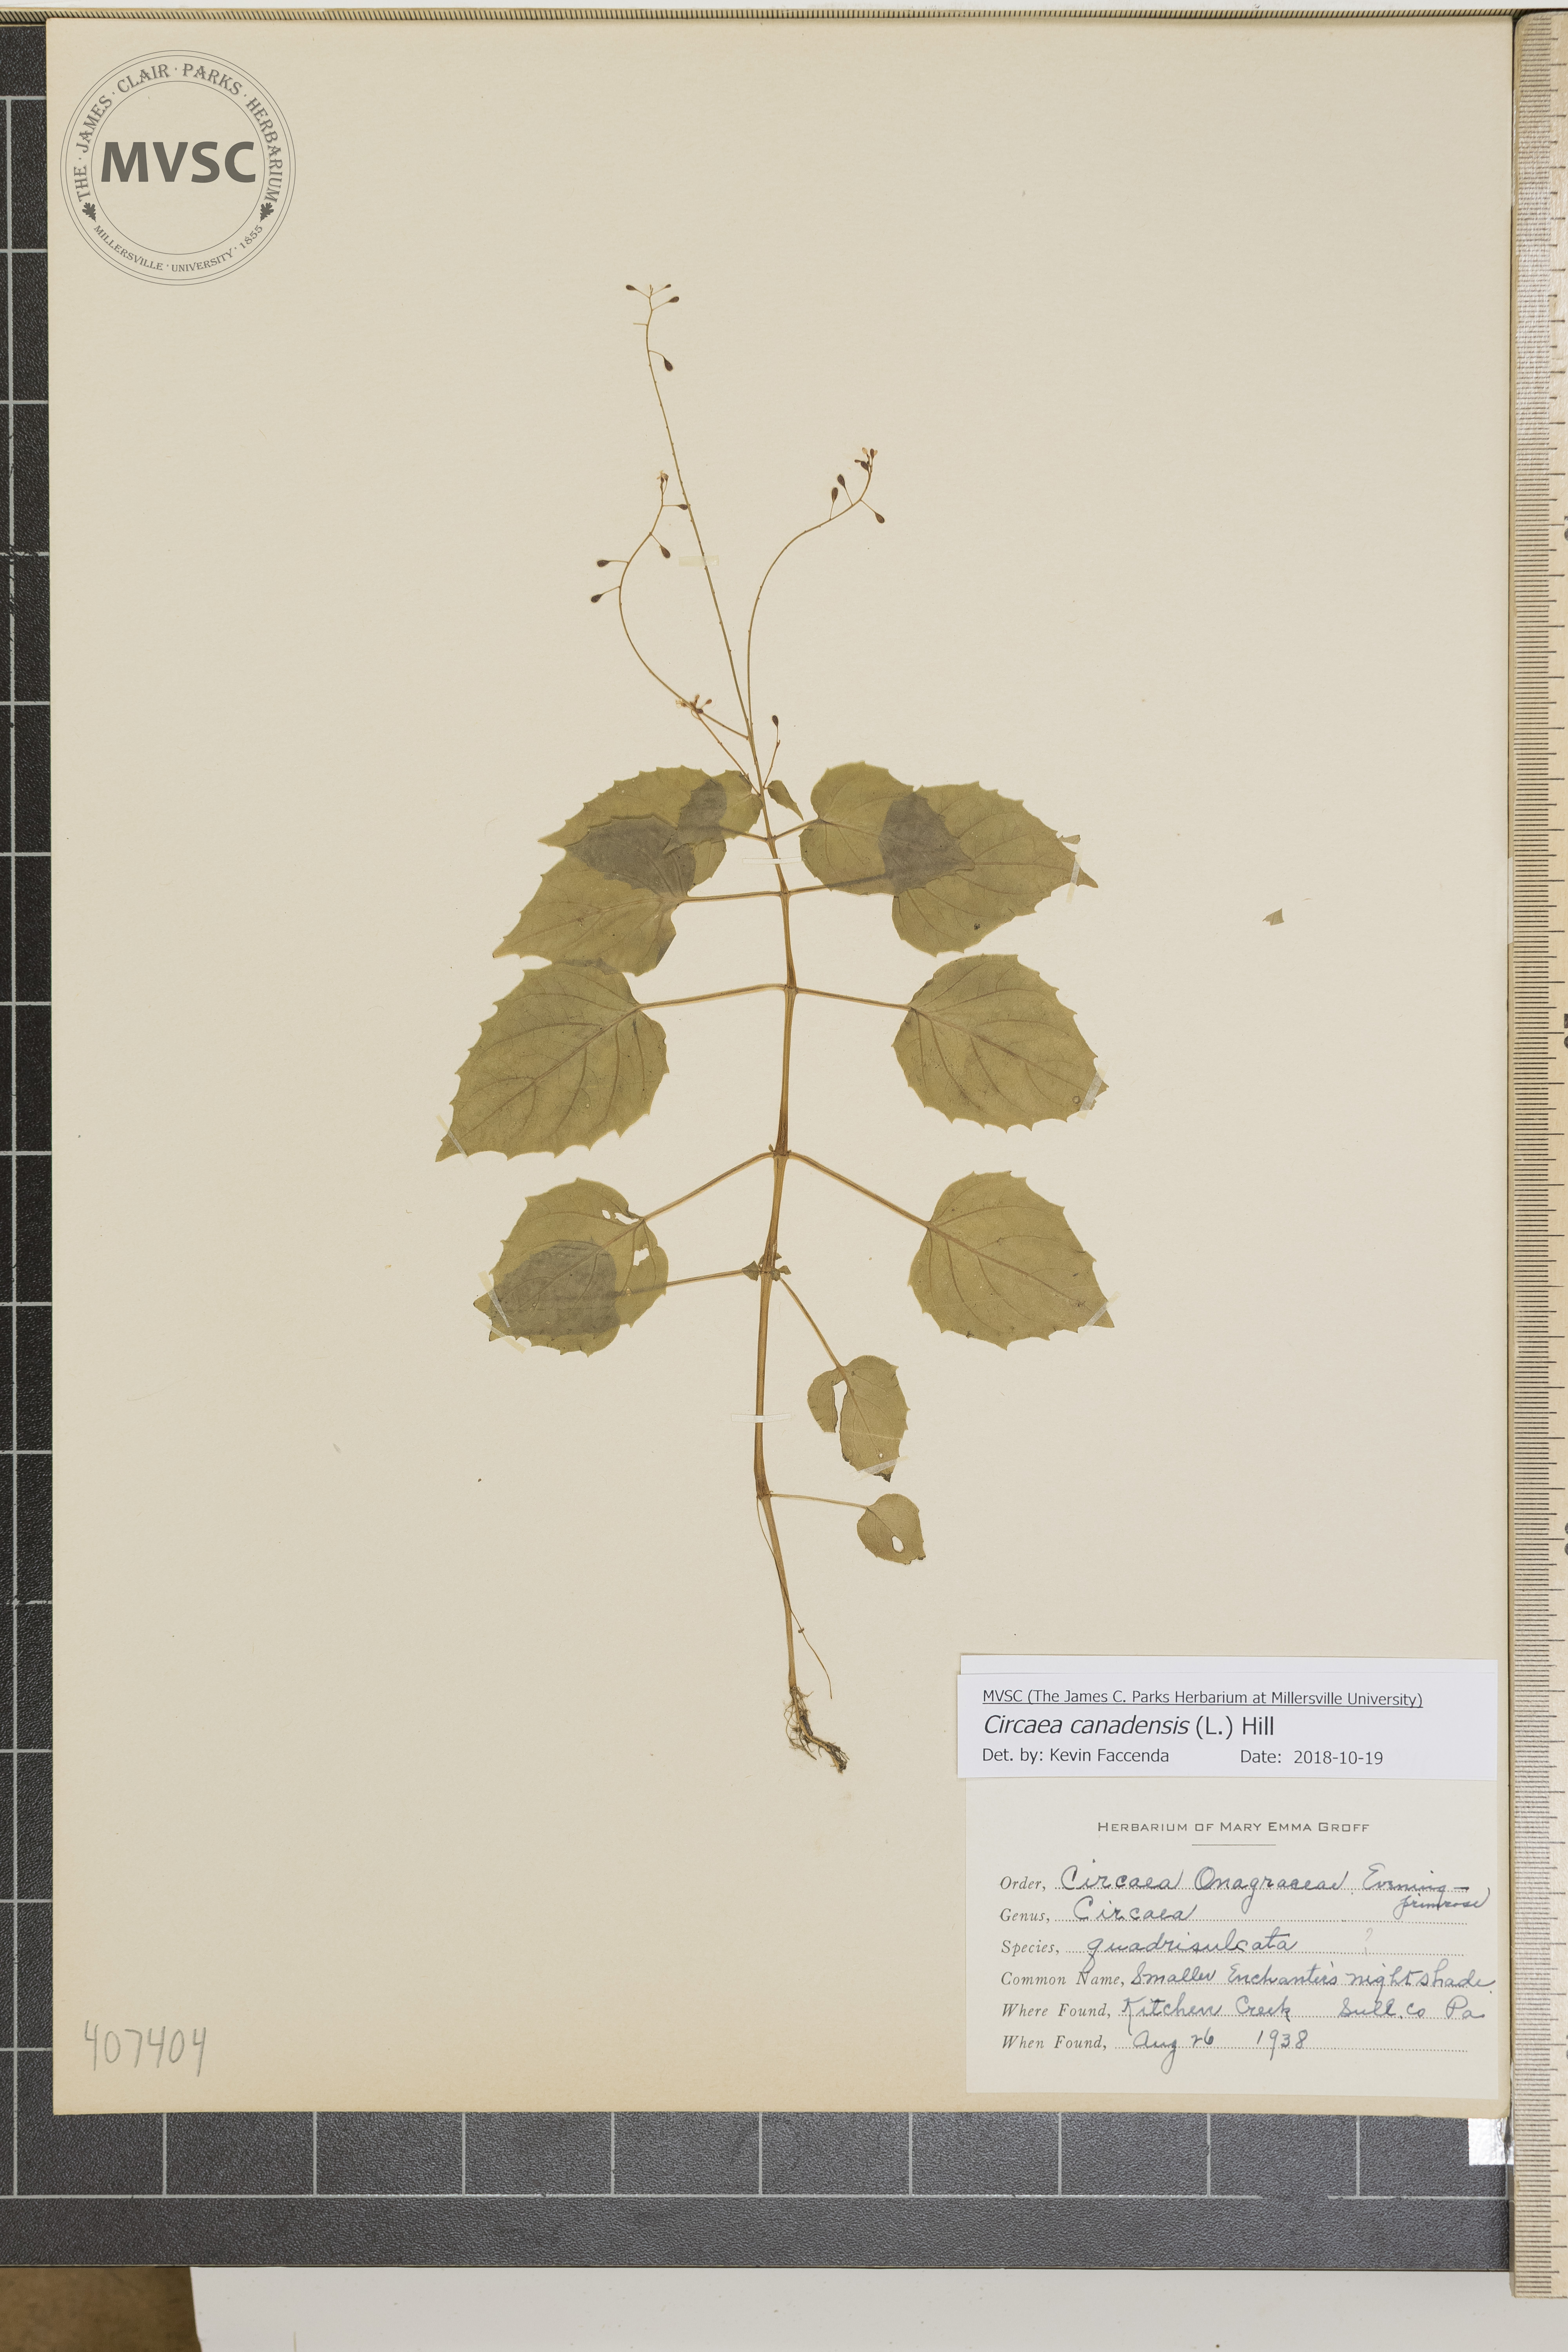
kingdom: Plantae
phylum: Tracheophyta
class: Magnoliopsida
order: Myrtales
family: Onagraceae
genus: Circaea
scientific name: Circaea canadensis
